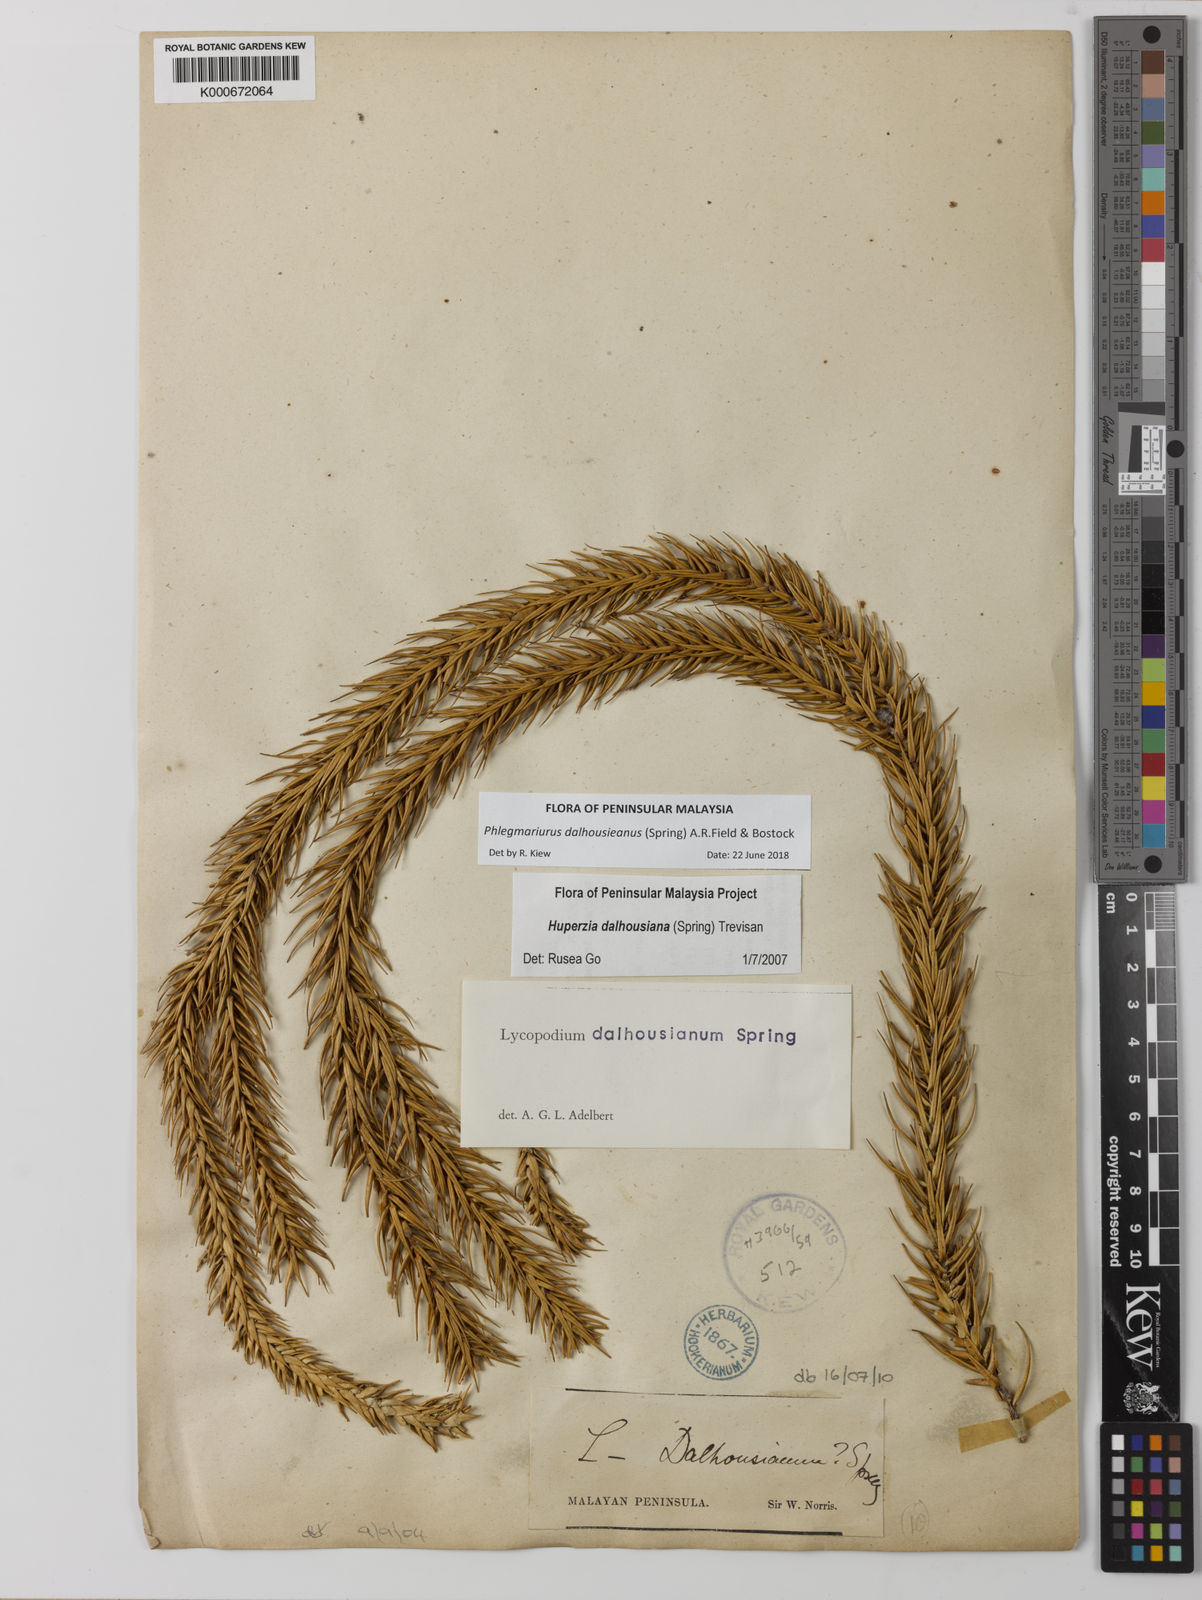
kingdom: Plantae
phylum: Tracheophyta
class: Lycopodiopsida
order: Lycopodiales
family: Lycopodiaceae
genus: Phlegmariurus
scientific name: Phlegmariurus dalhousieanus
